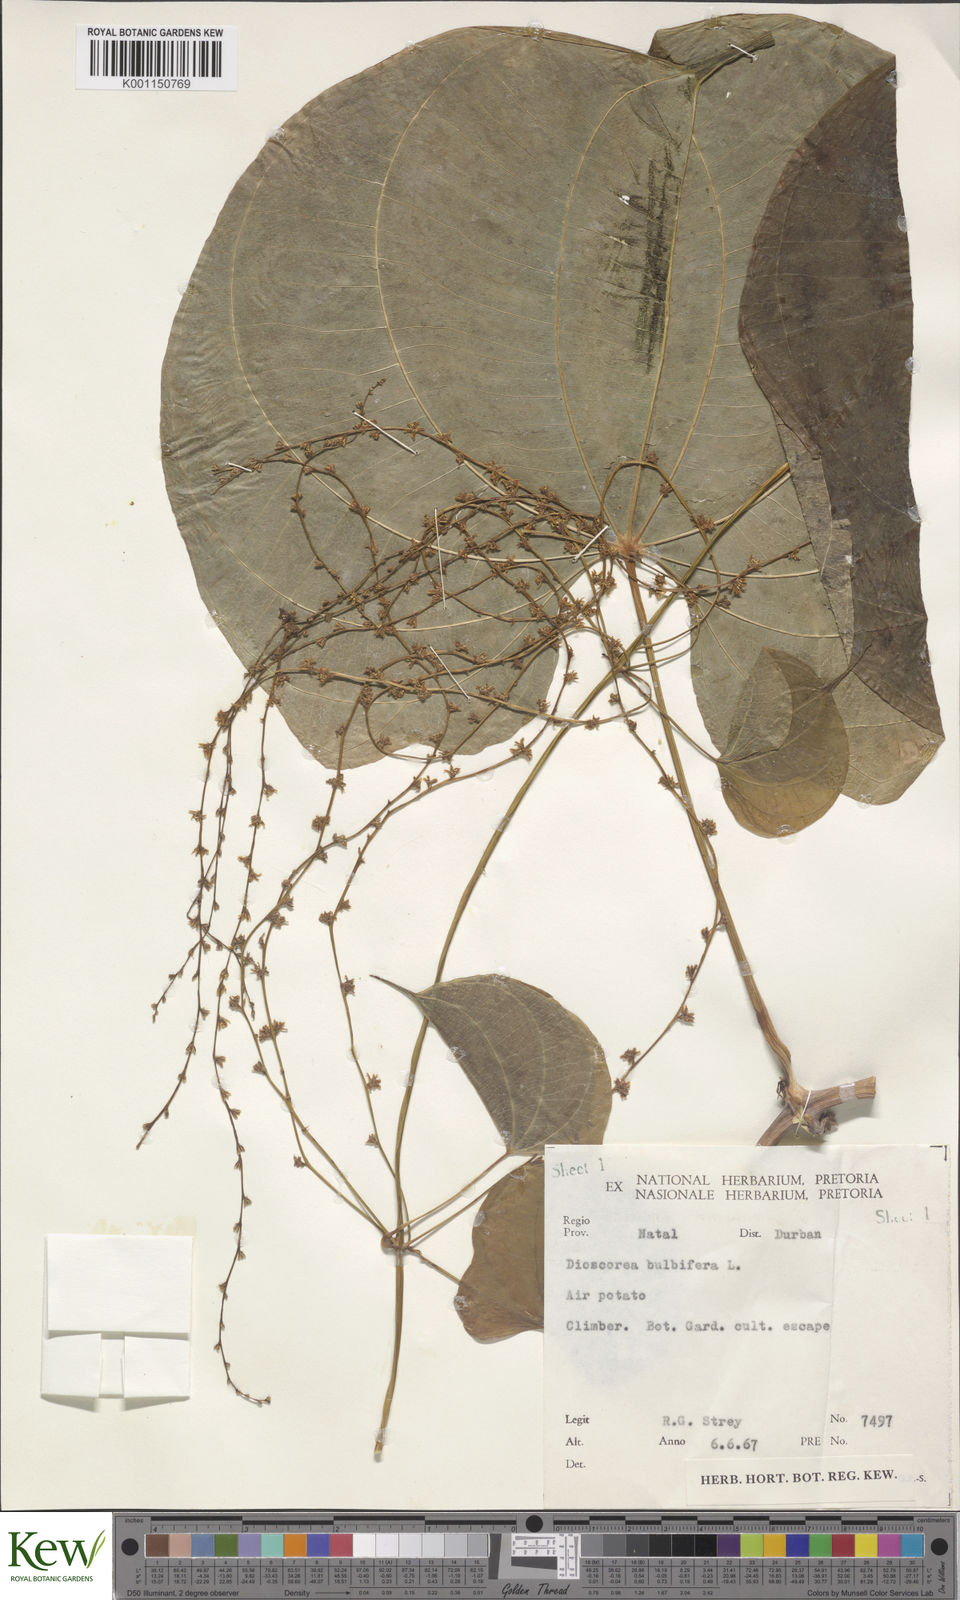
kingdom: Plantae
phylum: Tracheophyta
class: Liliopsida
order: Dioscoreales
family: Dioscoreaceae
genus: Dioscorea
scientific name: Dioscorea bulbifera
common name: Air yam
